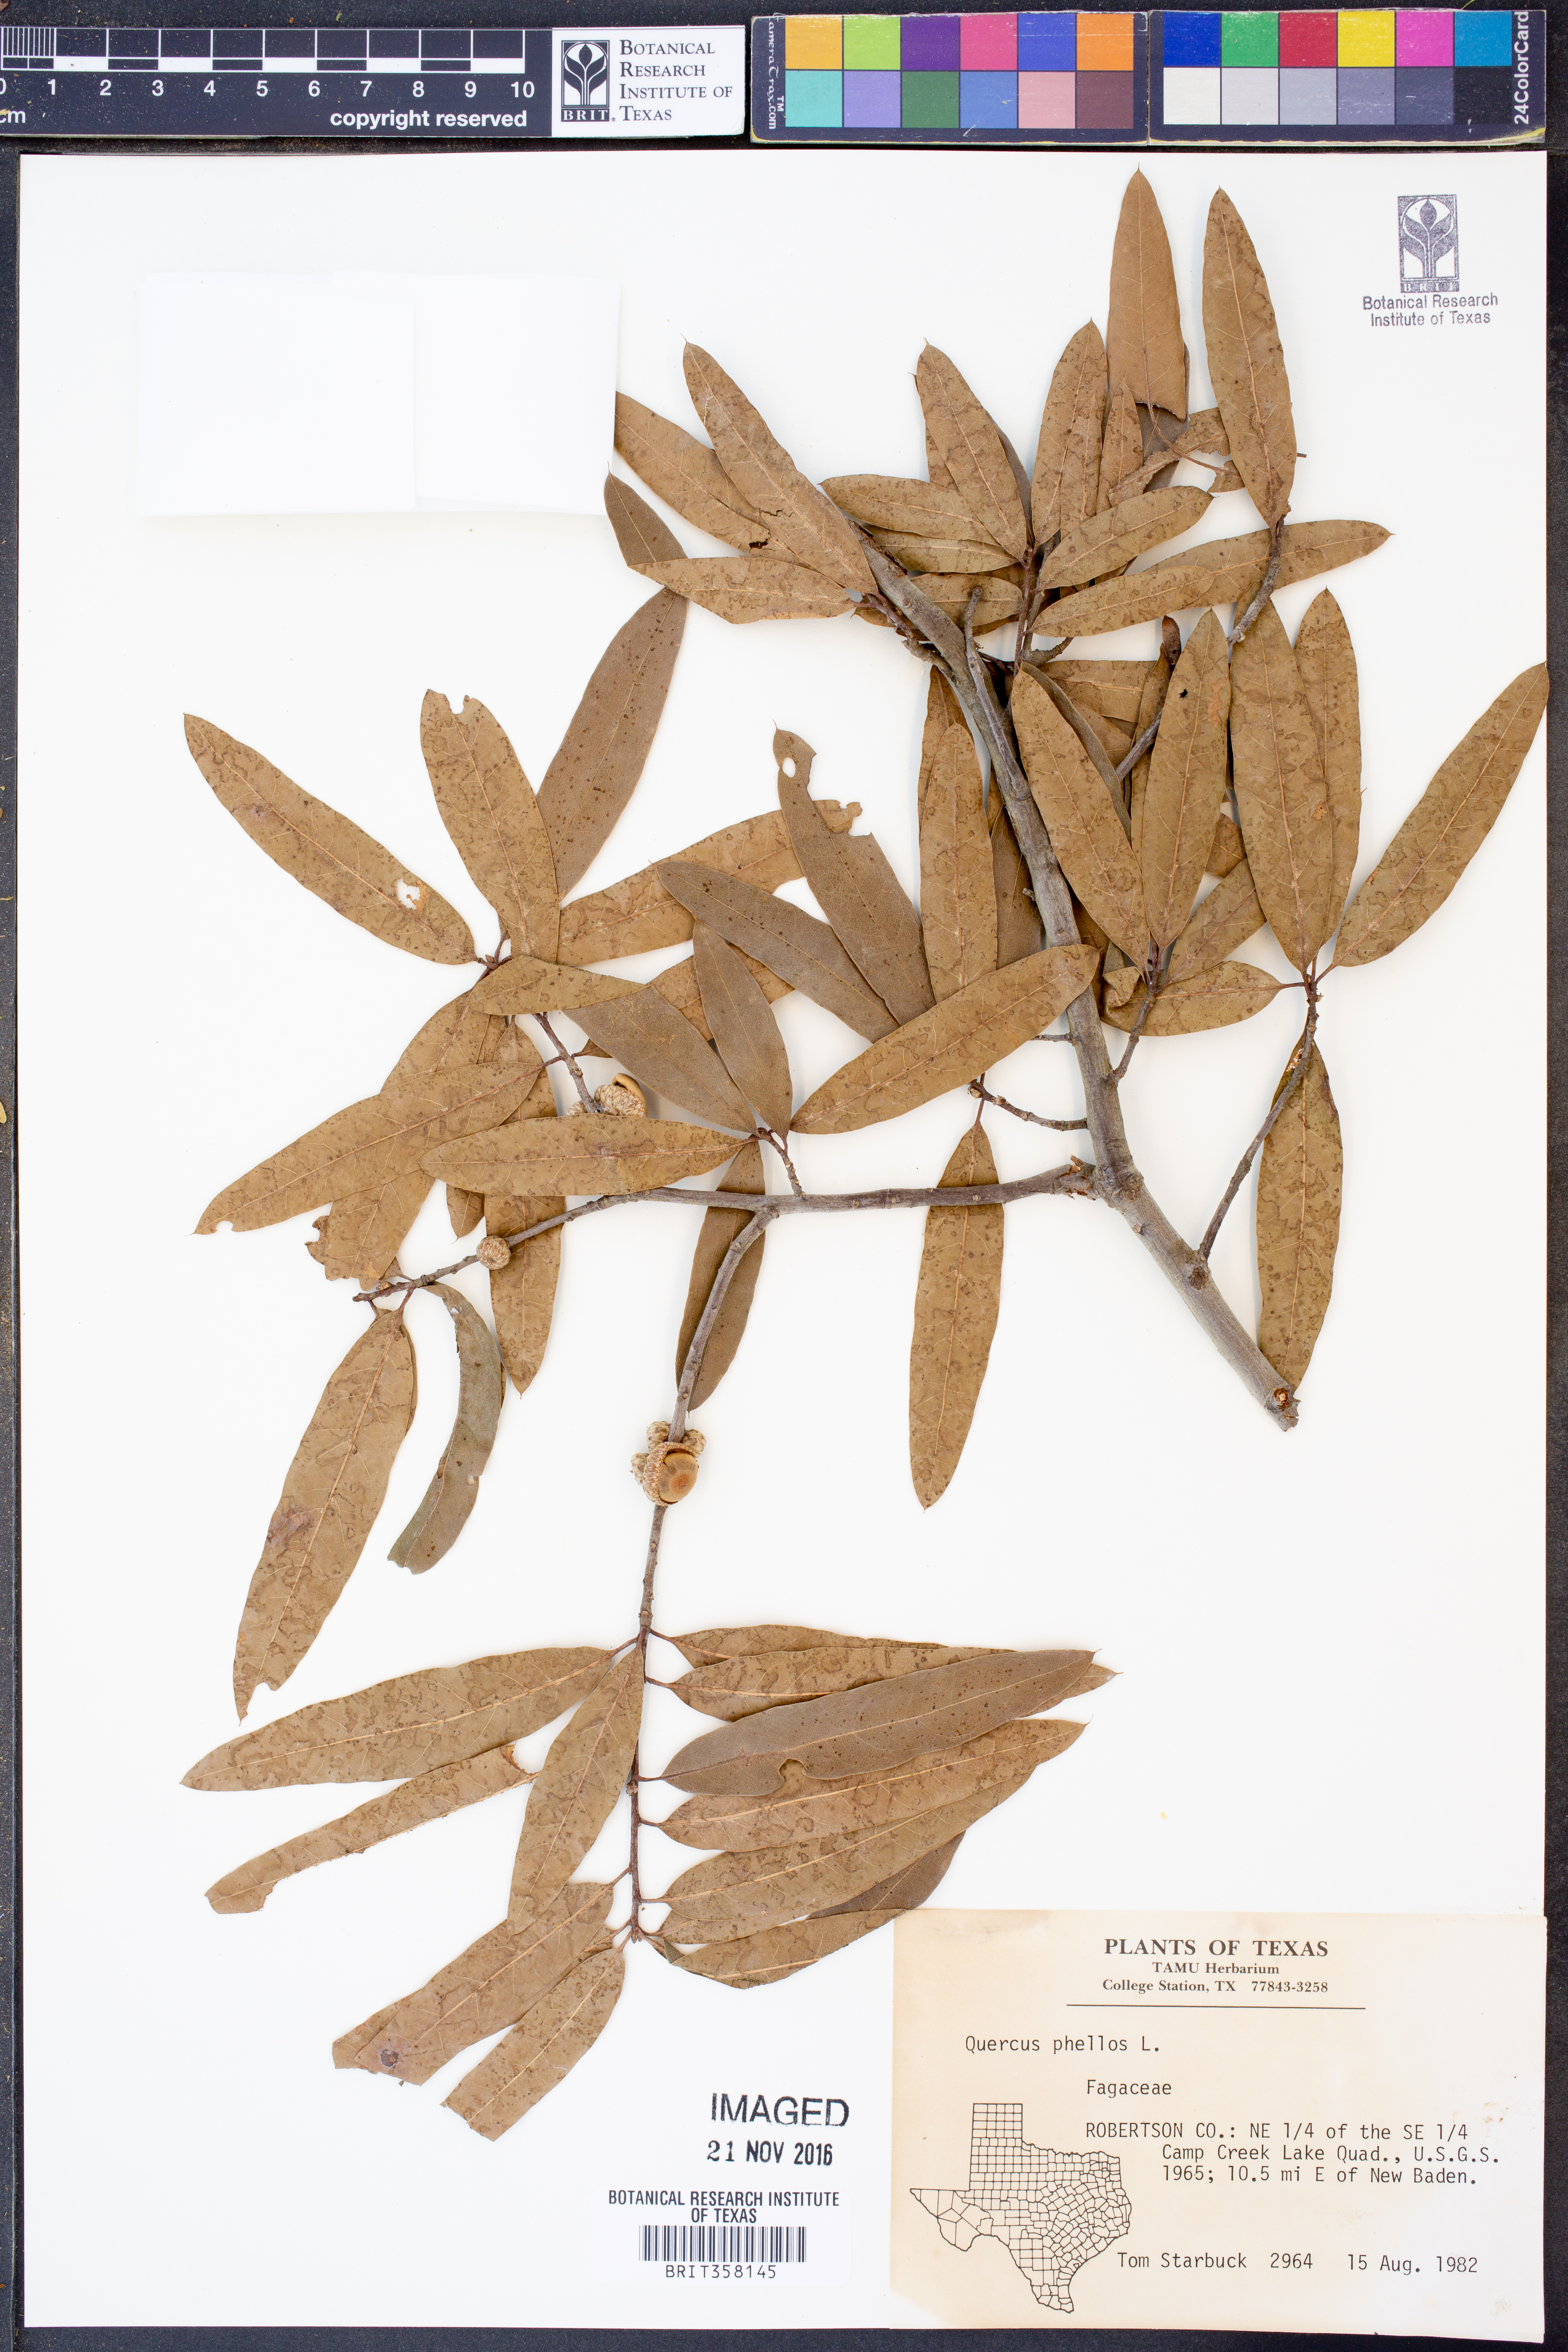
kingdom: Plantae
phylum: Tracheophyta
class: Magnoliopsida
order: Fagales
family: Fagaceae
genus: Quercus
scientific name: Quercus phellos
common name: Willow oak
